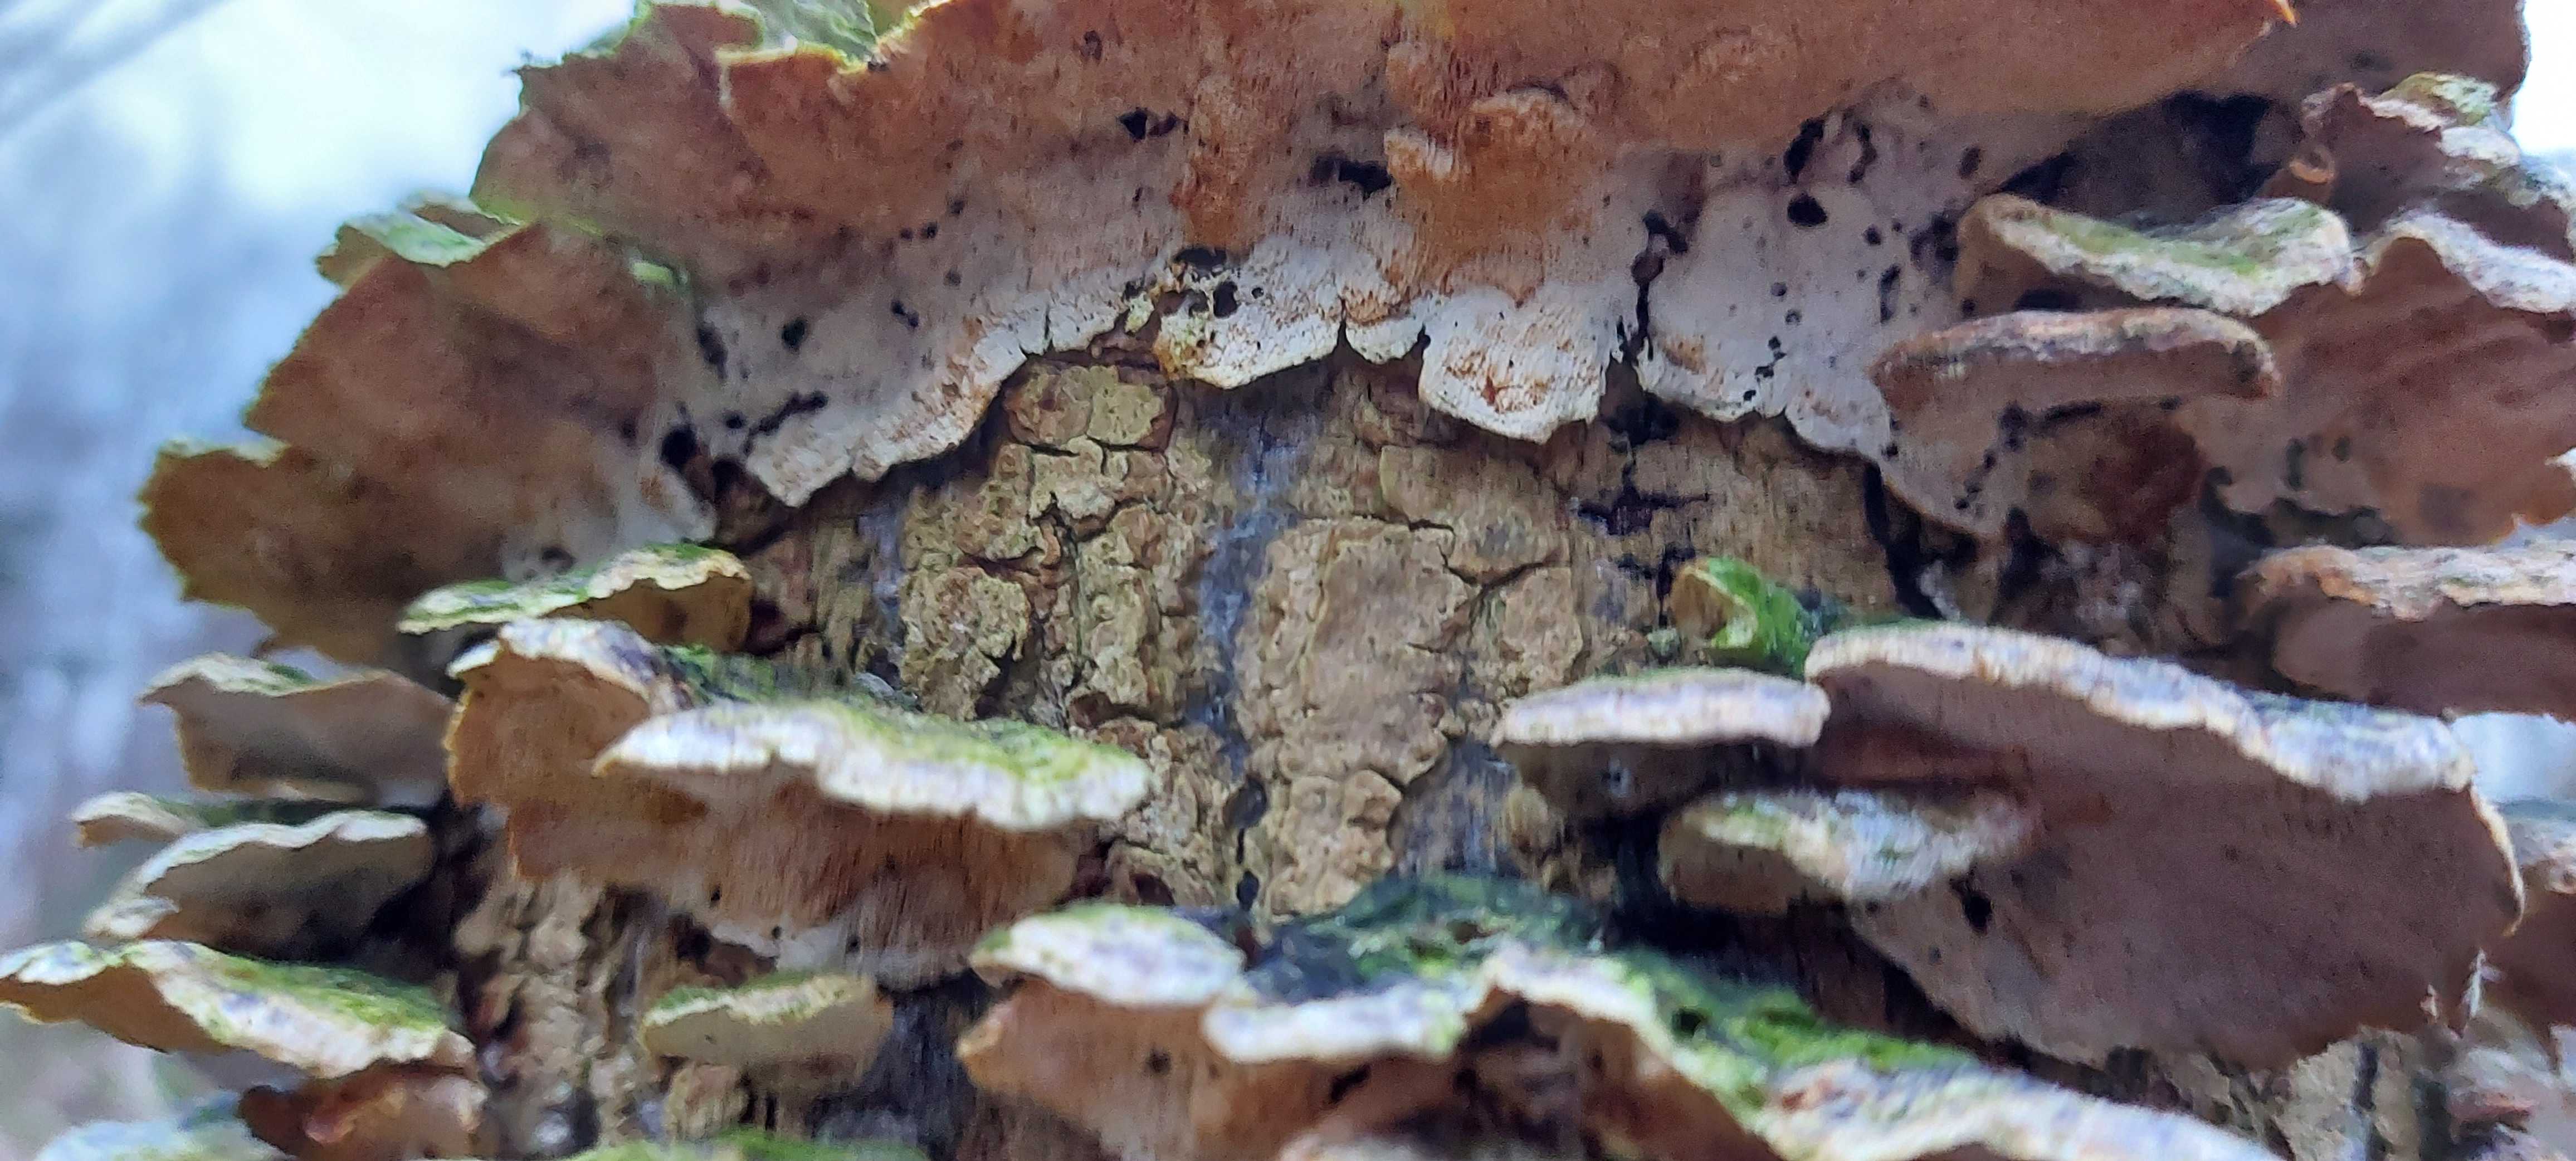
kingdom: Fungi
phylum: Basidiomycota
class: Agaricomycetes
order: Polyporales
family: Polyporaceae
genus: Trametes
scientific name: Trametes versicolor
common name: broget læderporesvamp
